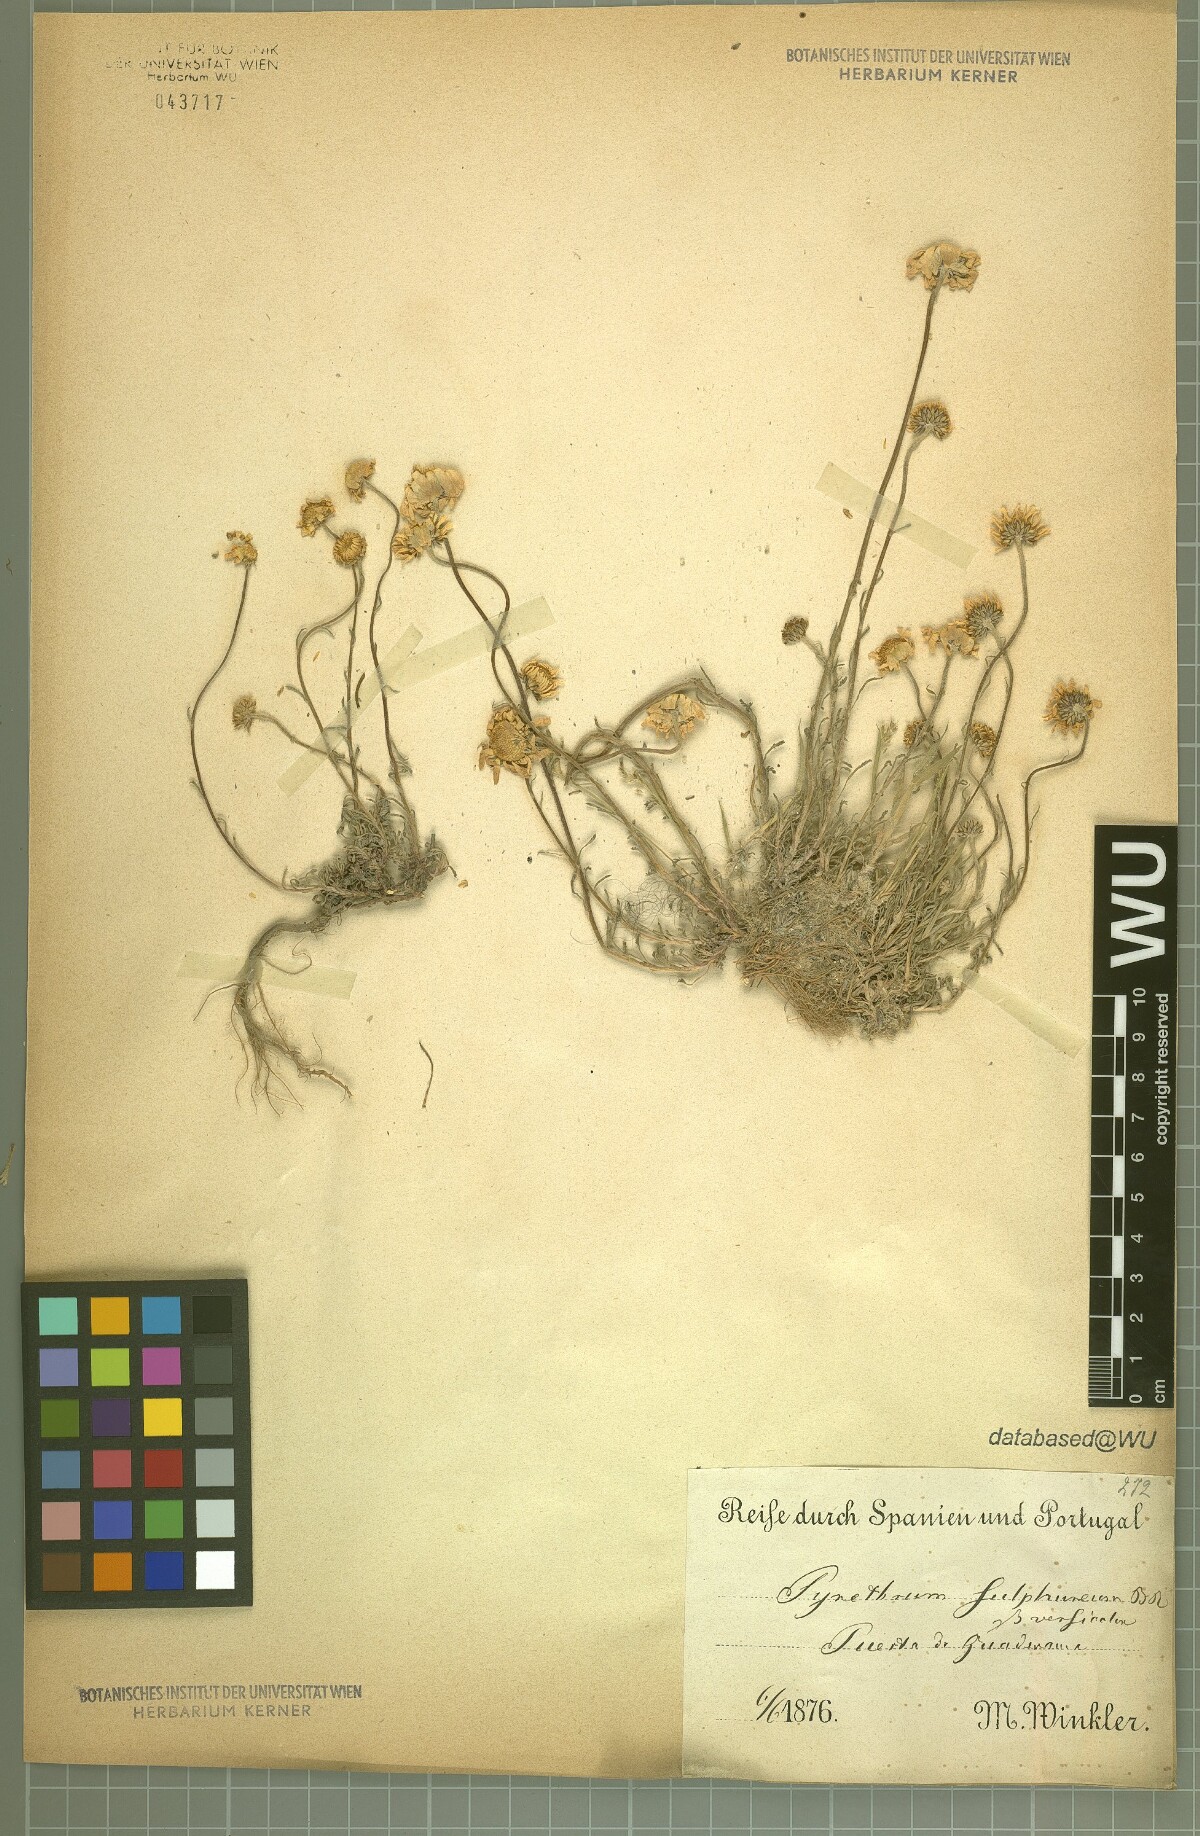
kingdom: Plantae
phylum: Tracheophyta
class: Magnoliopsida
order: Asterales
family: Asteraceae
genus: Leucanthemopsis
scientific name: Leucanthemopsis pallida
